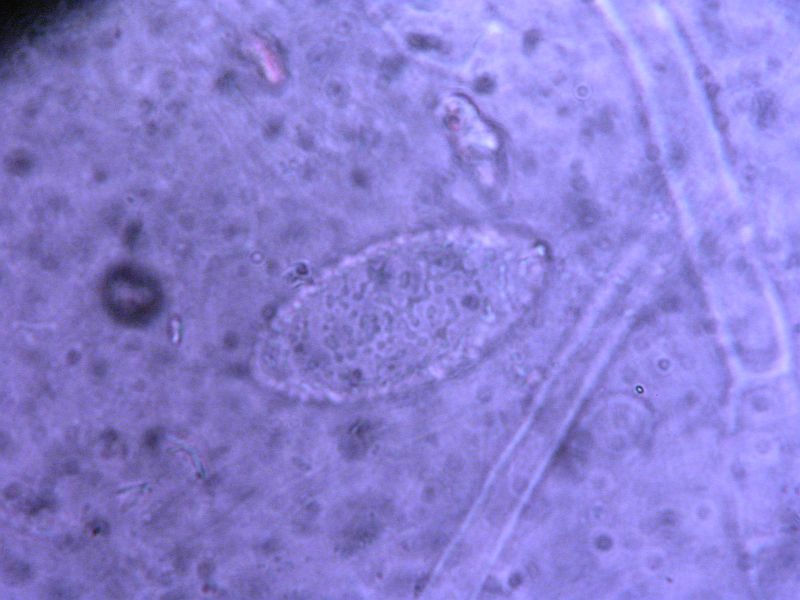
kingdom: Fungi
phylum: Ascomycota
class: Pezizomycetes
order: Pezizales
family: Pyronemataceae
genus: Neottiella
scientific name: Neottiella rutilans
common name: jomfruhår-mosbæger
